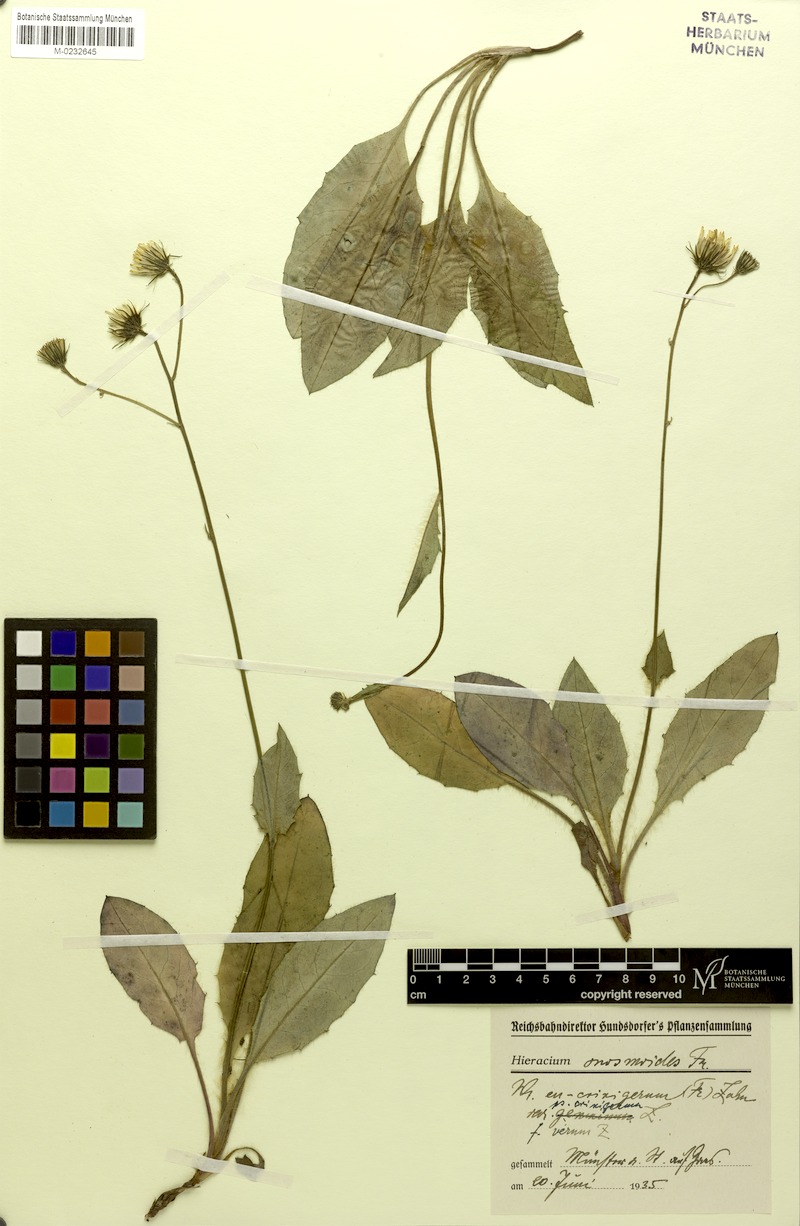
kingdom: Plantae
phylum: Tracheophyta
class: Magnoliopsida
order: Asterales
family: Asteraceae
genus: Hieracium
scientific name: Hieracium onosmoides
